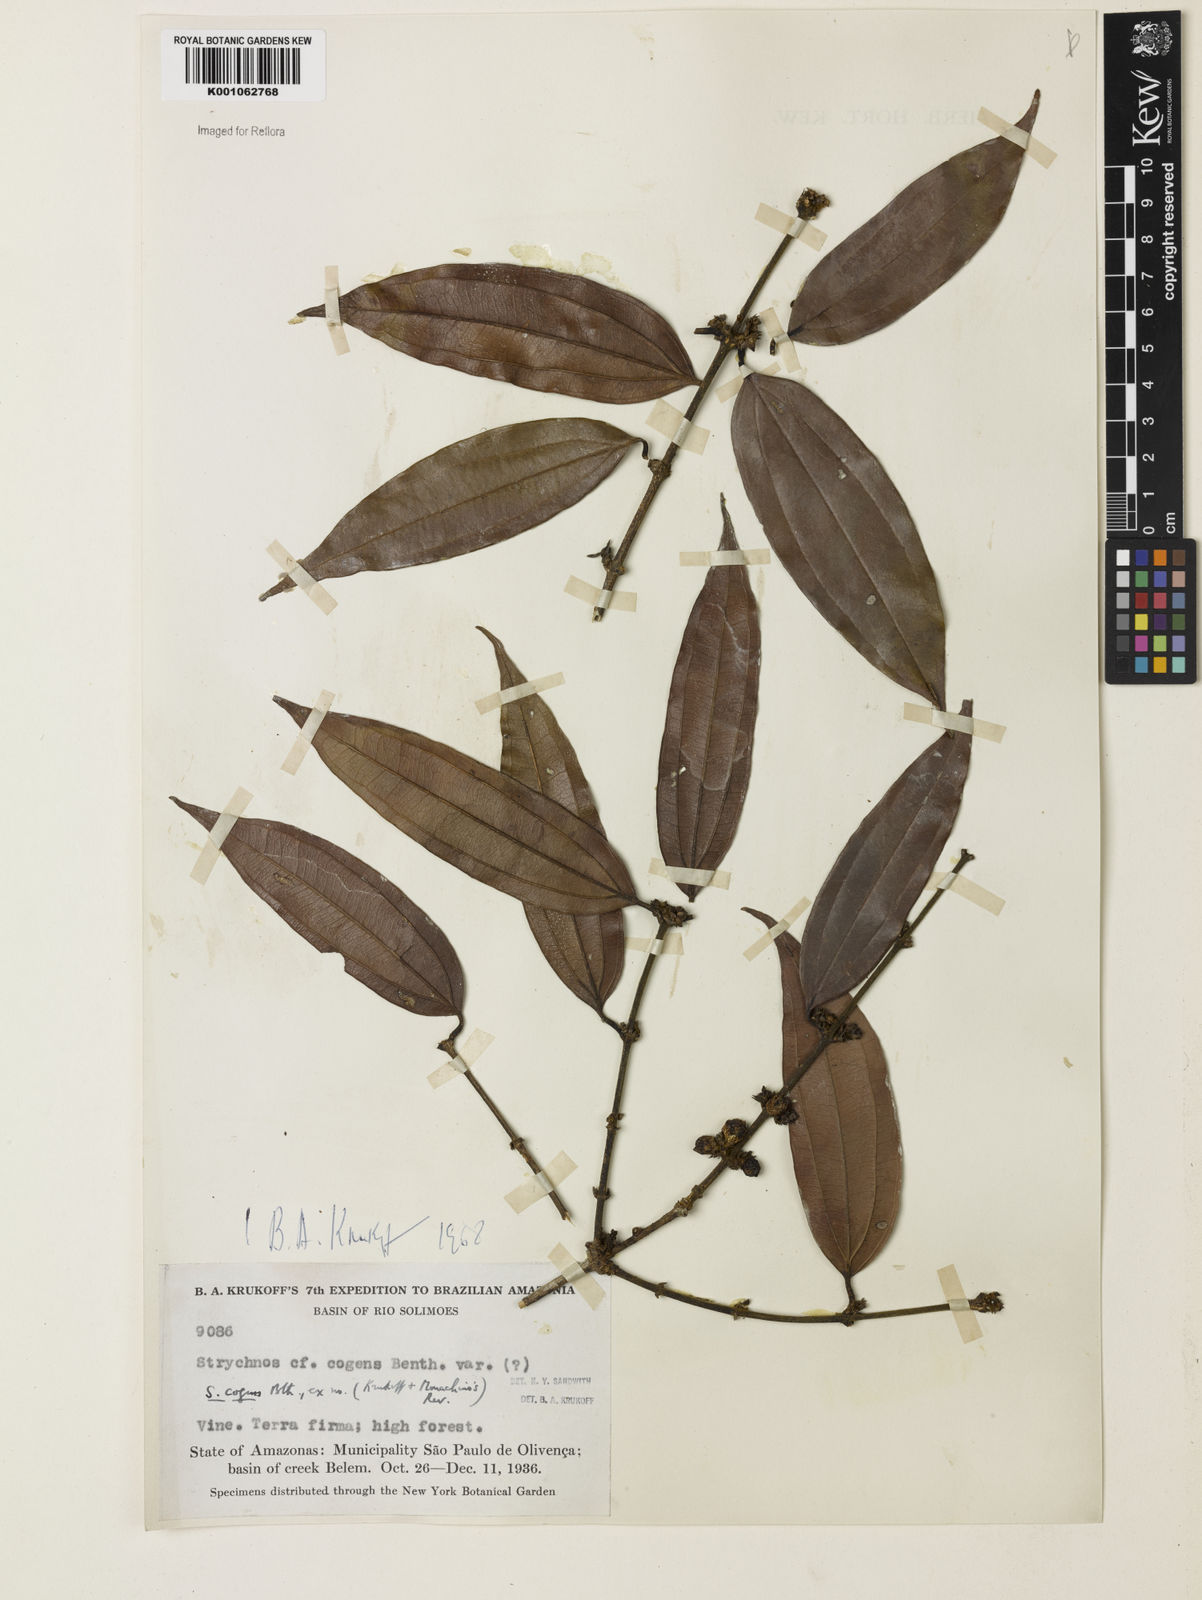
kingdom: Plantae
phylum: Tracheophyta
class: Magnoliopsida
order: Gentianales
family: Loganiaceae
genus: Strychnos
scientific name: Strychnos cogens
